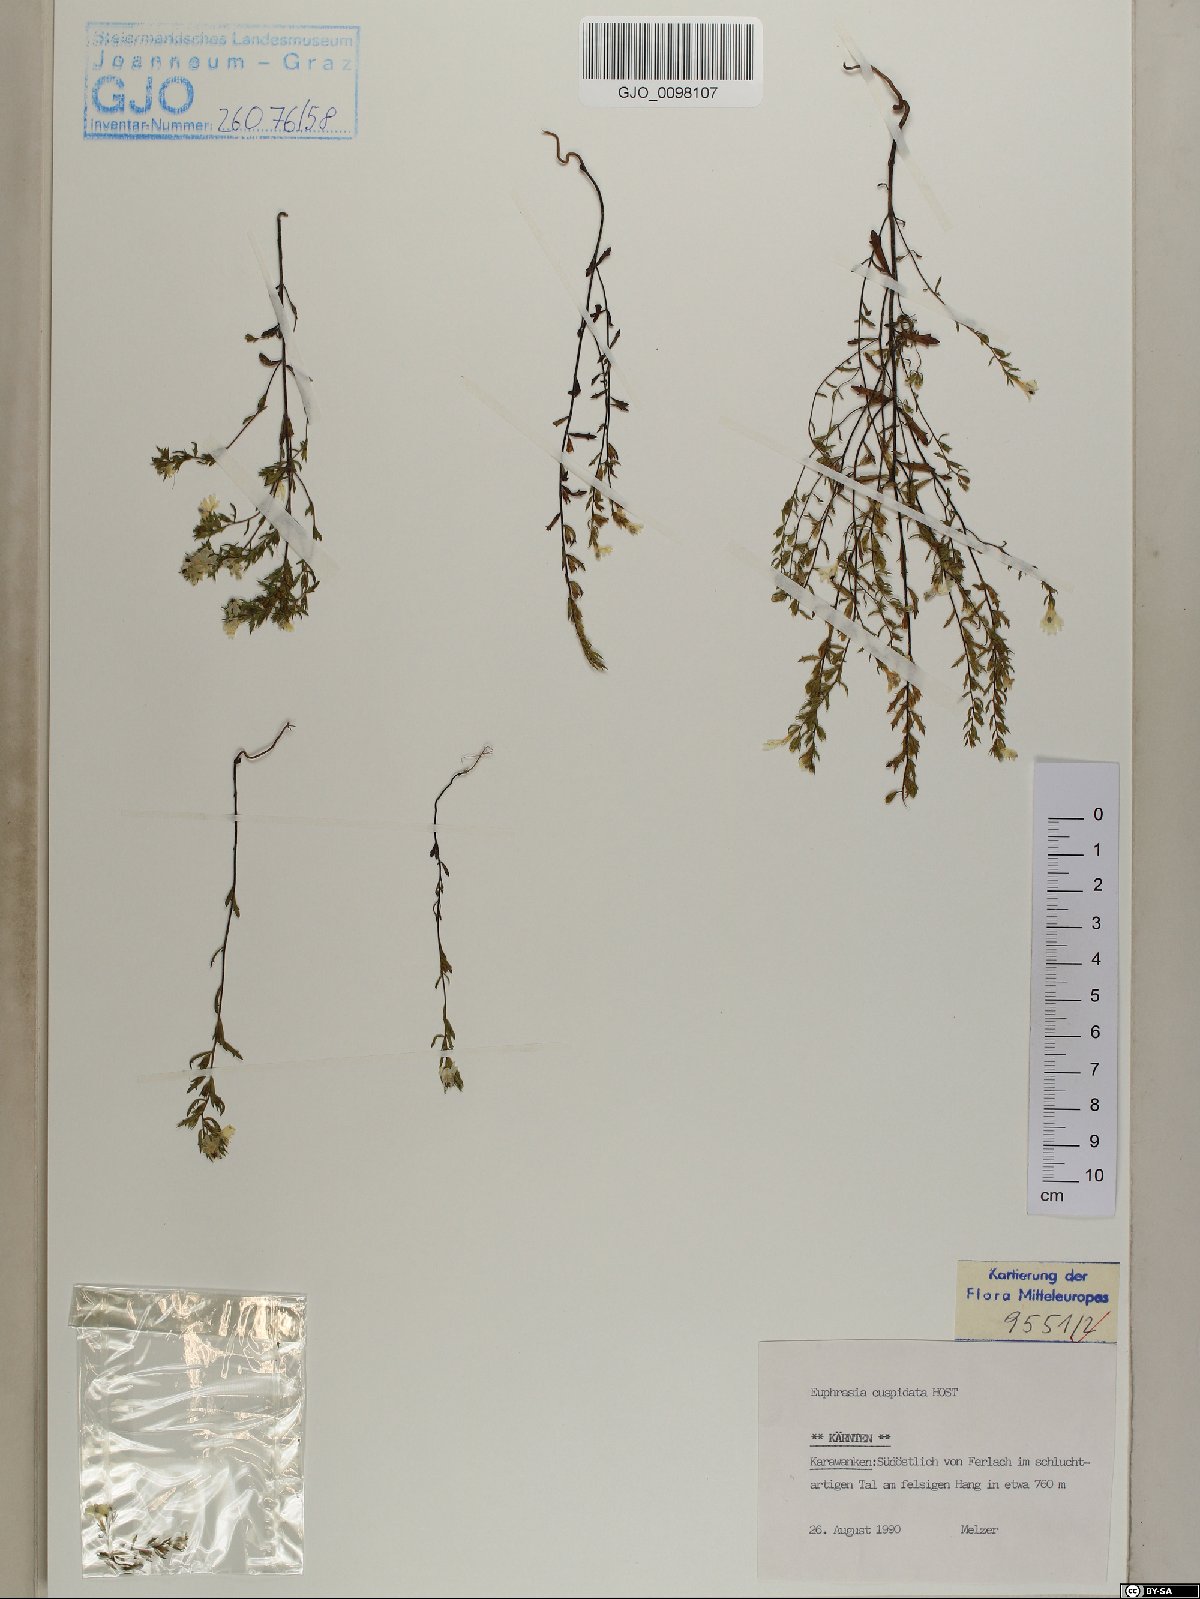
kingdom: Plantae
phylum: Tracheophyta
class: Magnoliopsida
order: Lamiales
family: Orobanchaceae
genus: Euphrasia
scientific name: Euphrasia cuspidata
